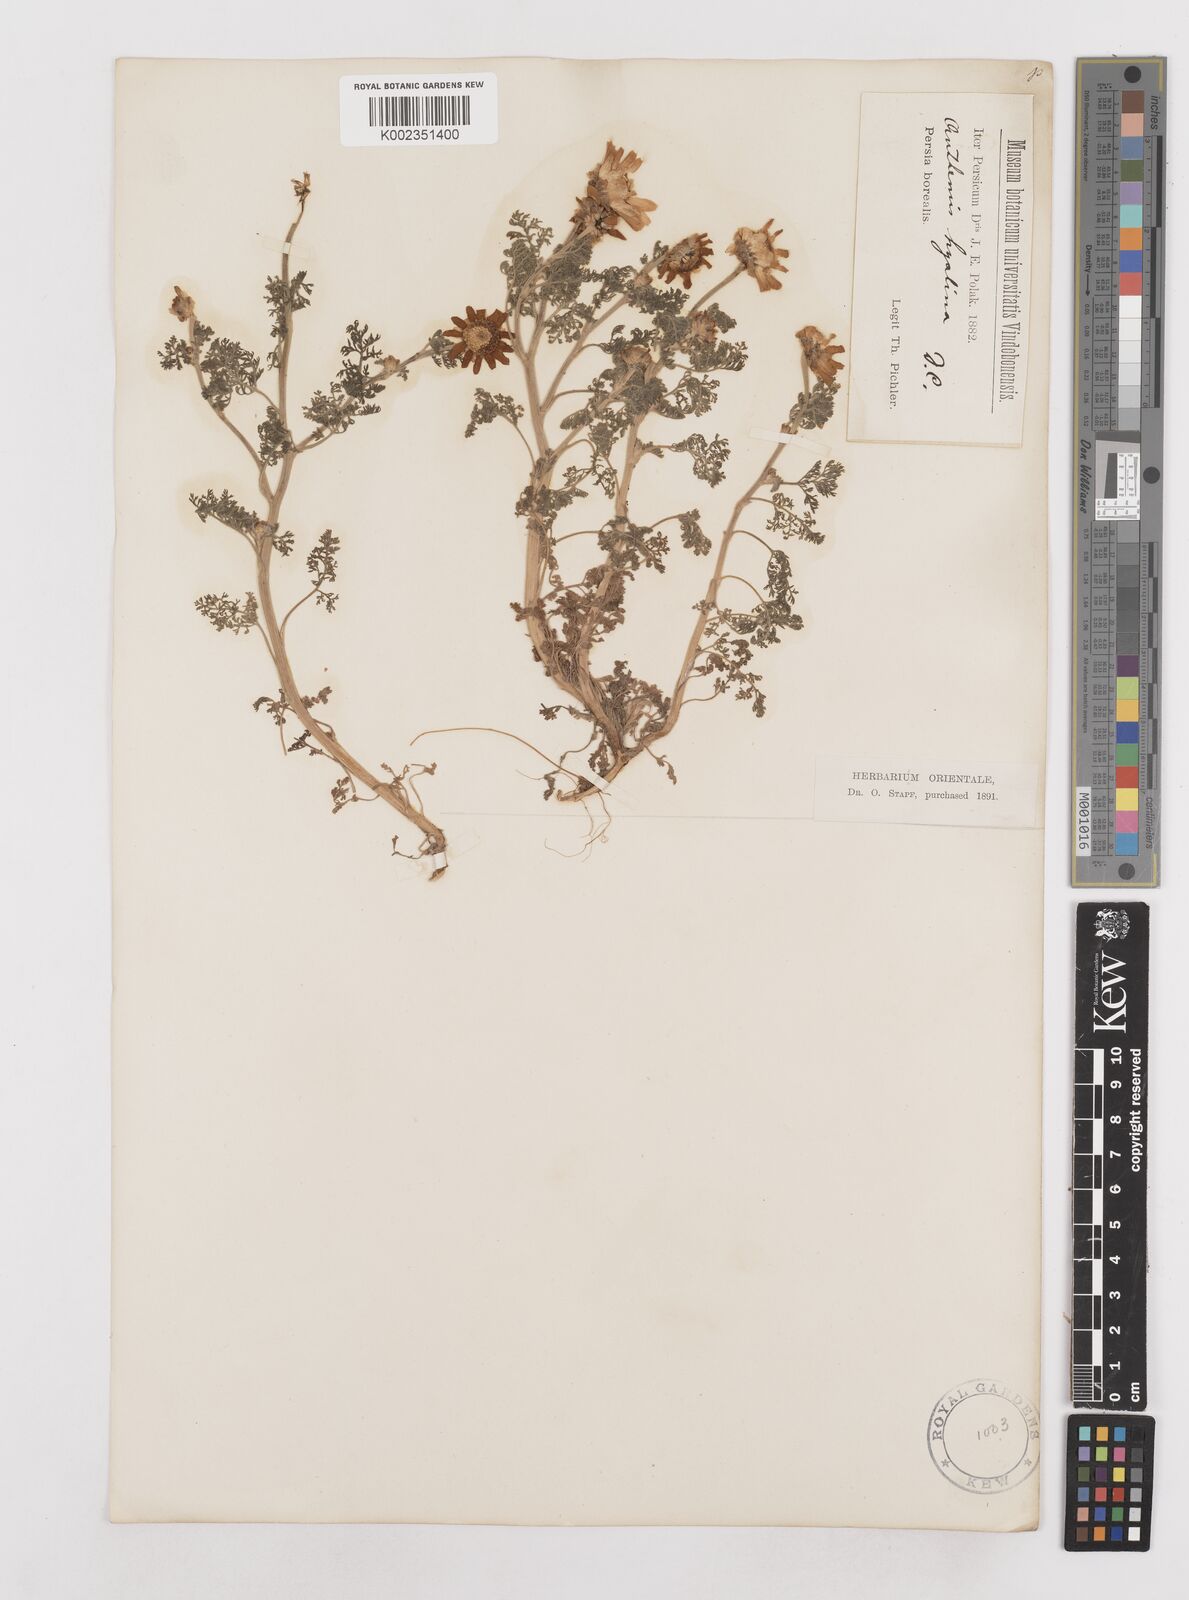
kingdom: Plantae
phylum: Tracheophyta
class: Magnoliopsida
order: Asterales
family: Asteraceae
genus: Anthemis
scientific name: Anthemis hyalina
